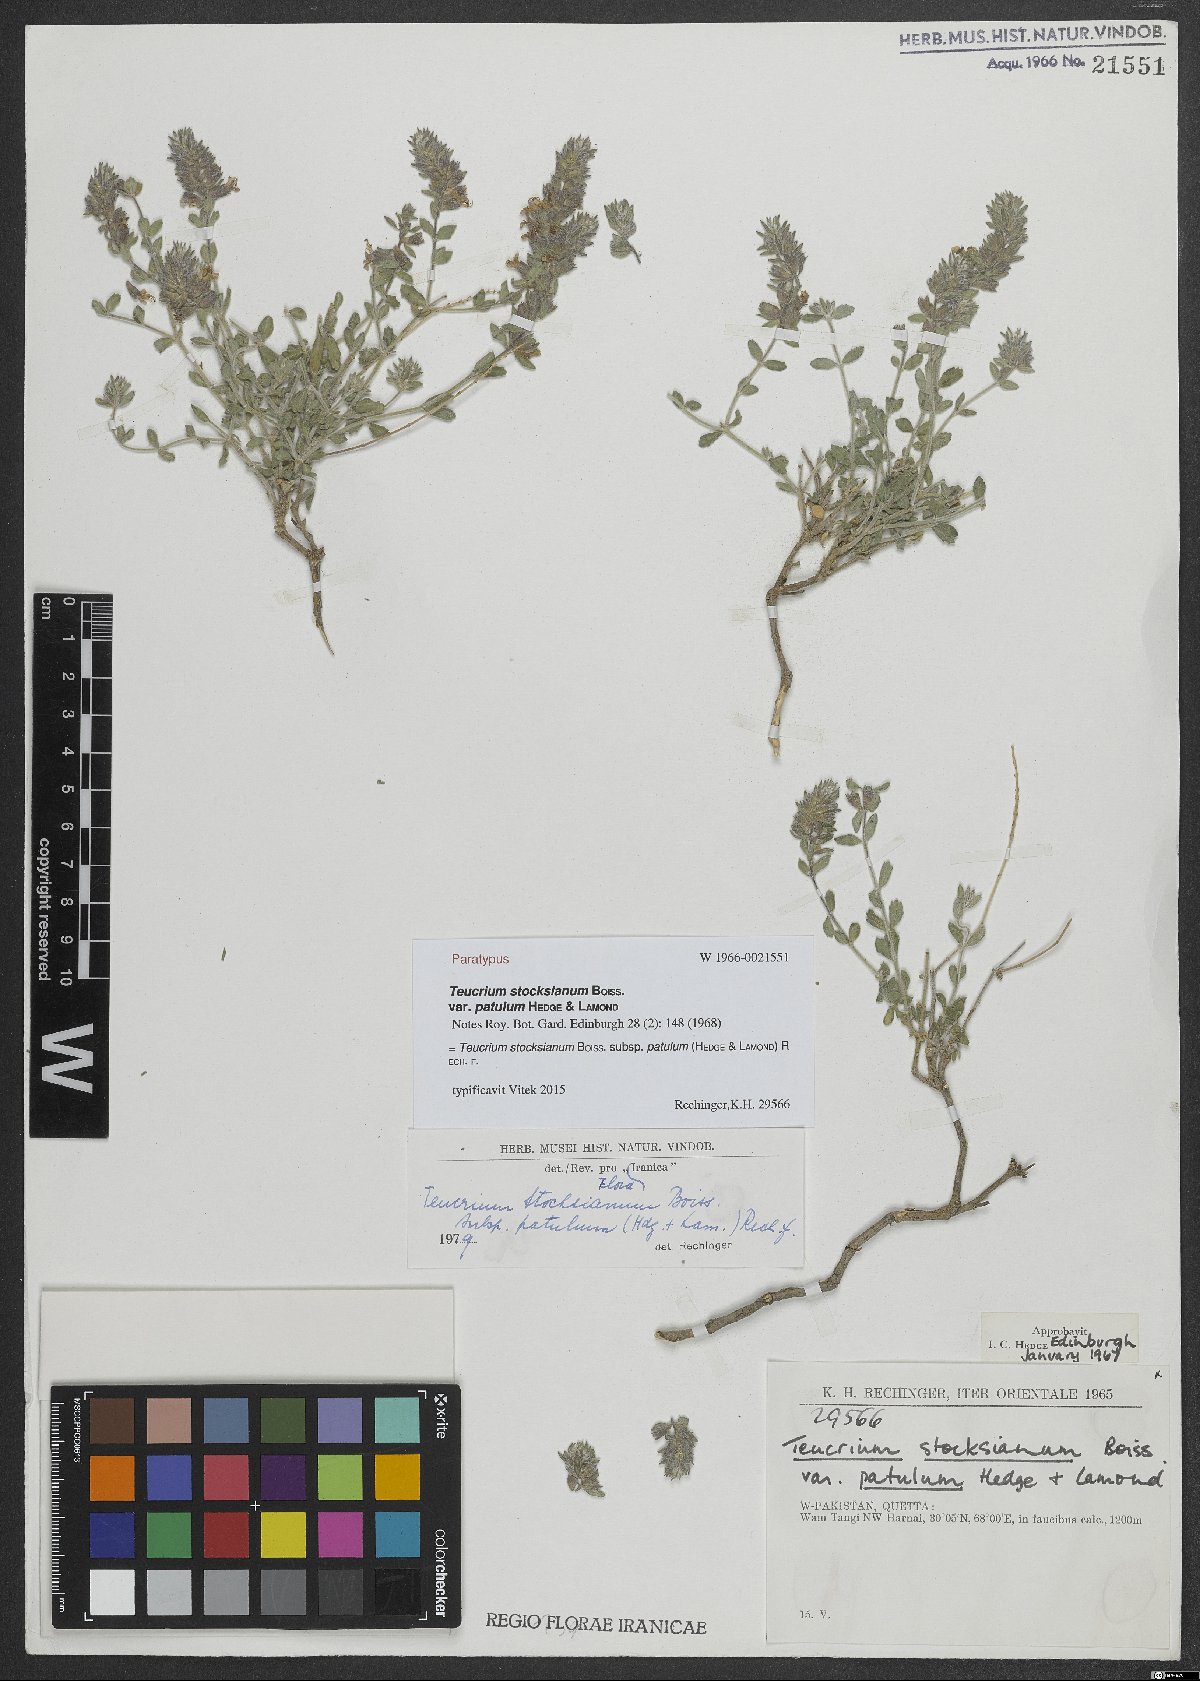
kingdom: Plantae
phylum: Tracheophyta
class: Magnoliopsida
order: Lamiales
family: Lamiaceae
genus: Teucrium
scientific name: Teucrium stocksianum
